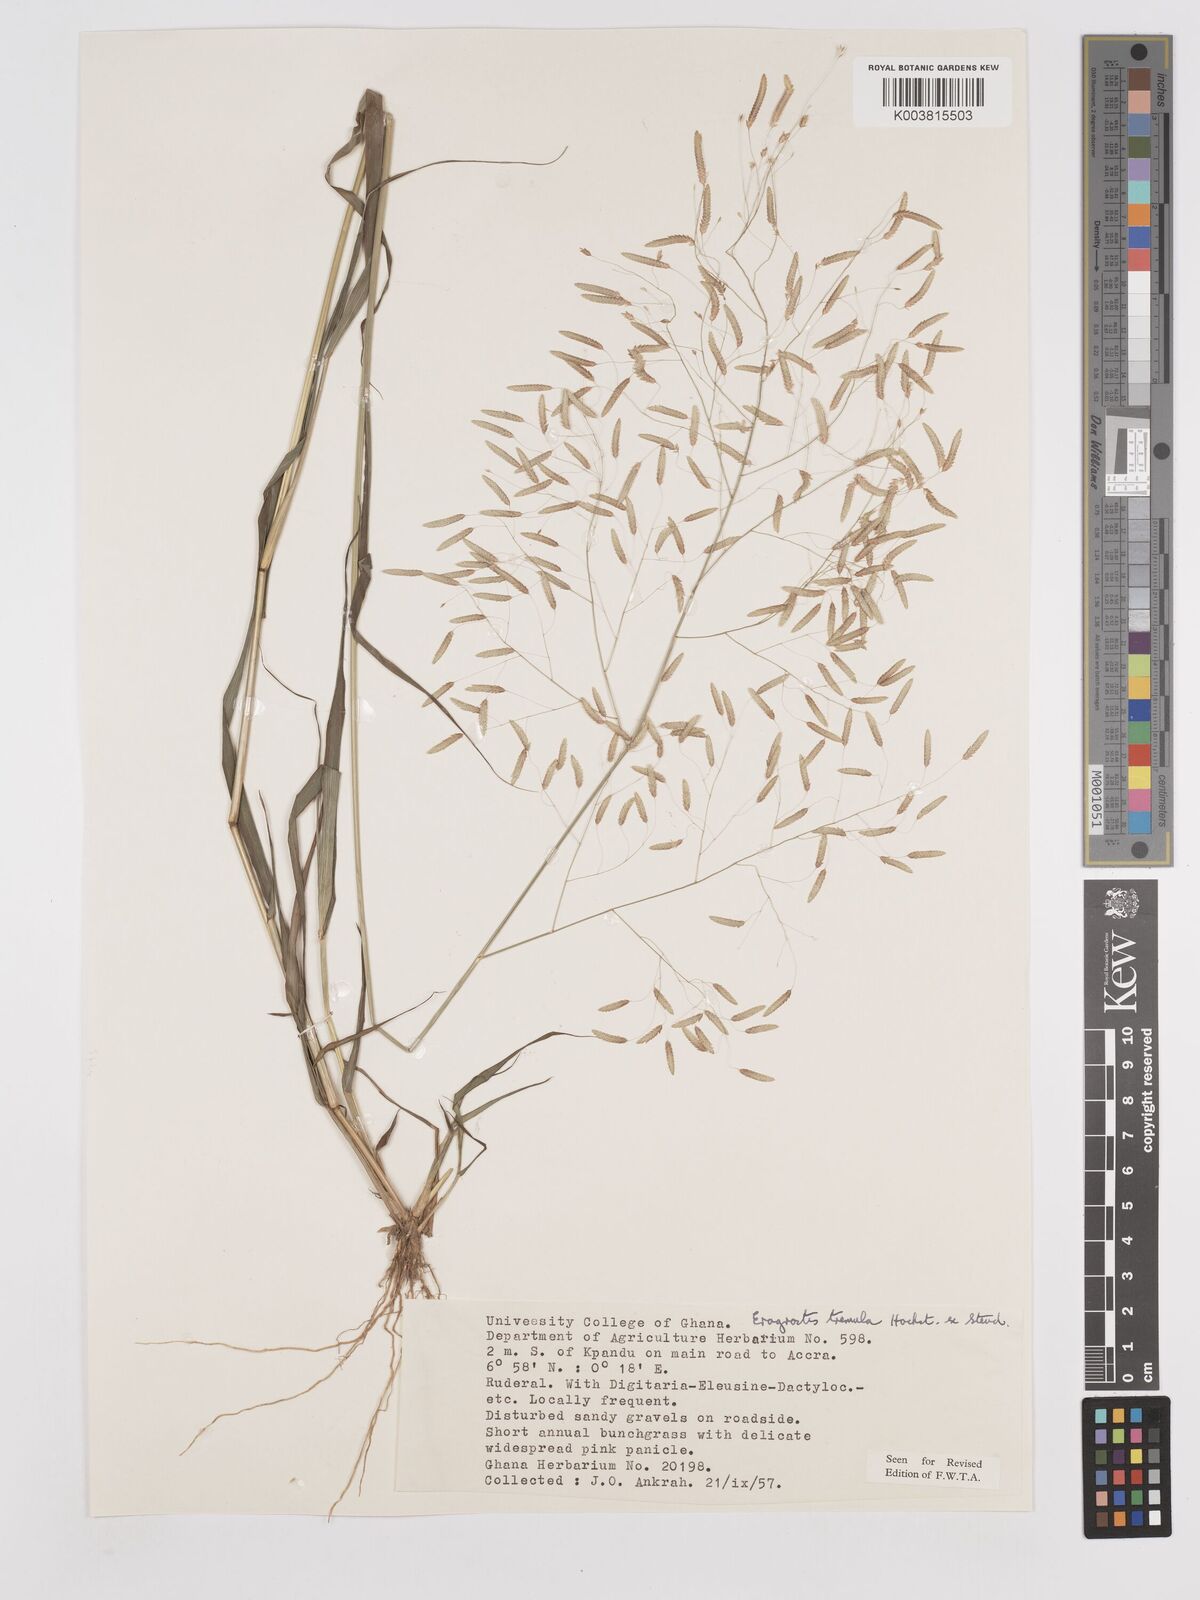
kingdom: Plantae
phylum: Tracheophyta
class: Liliopsida
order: Poales
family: Poaceae
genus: Eragrostis
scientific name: Eragrostis tremula
